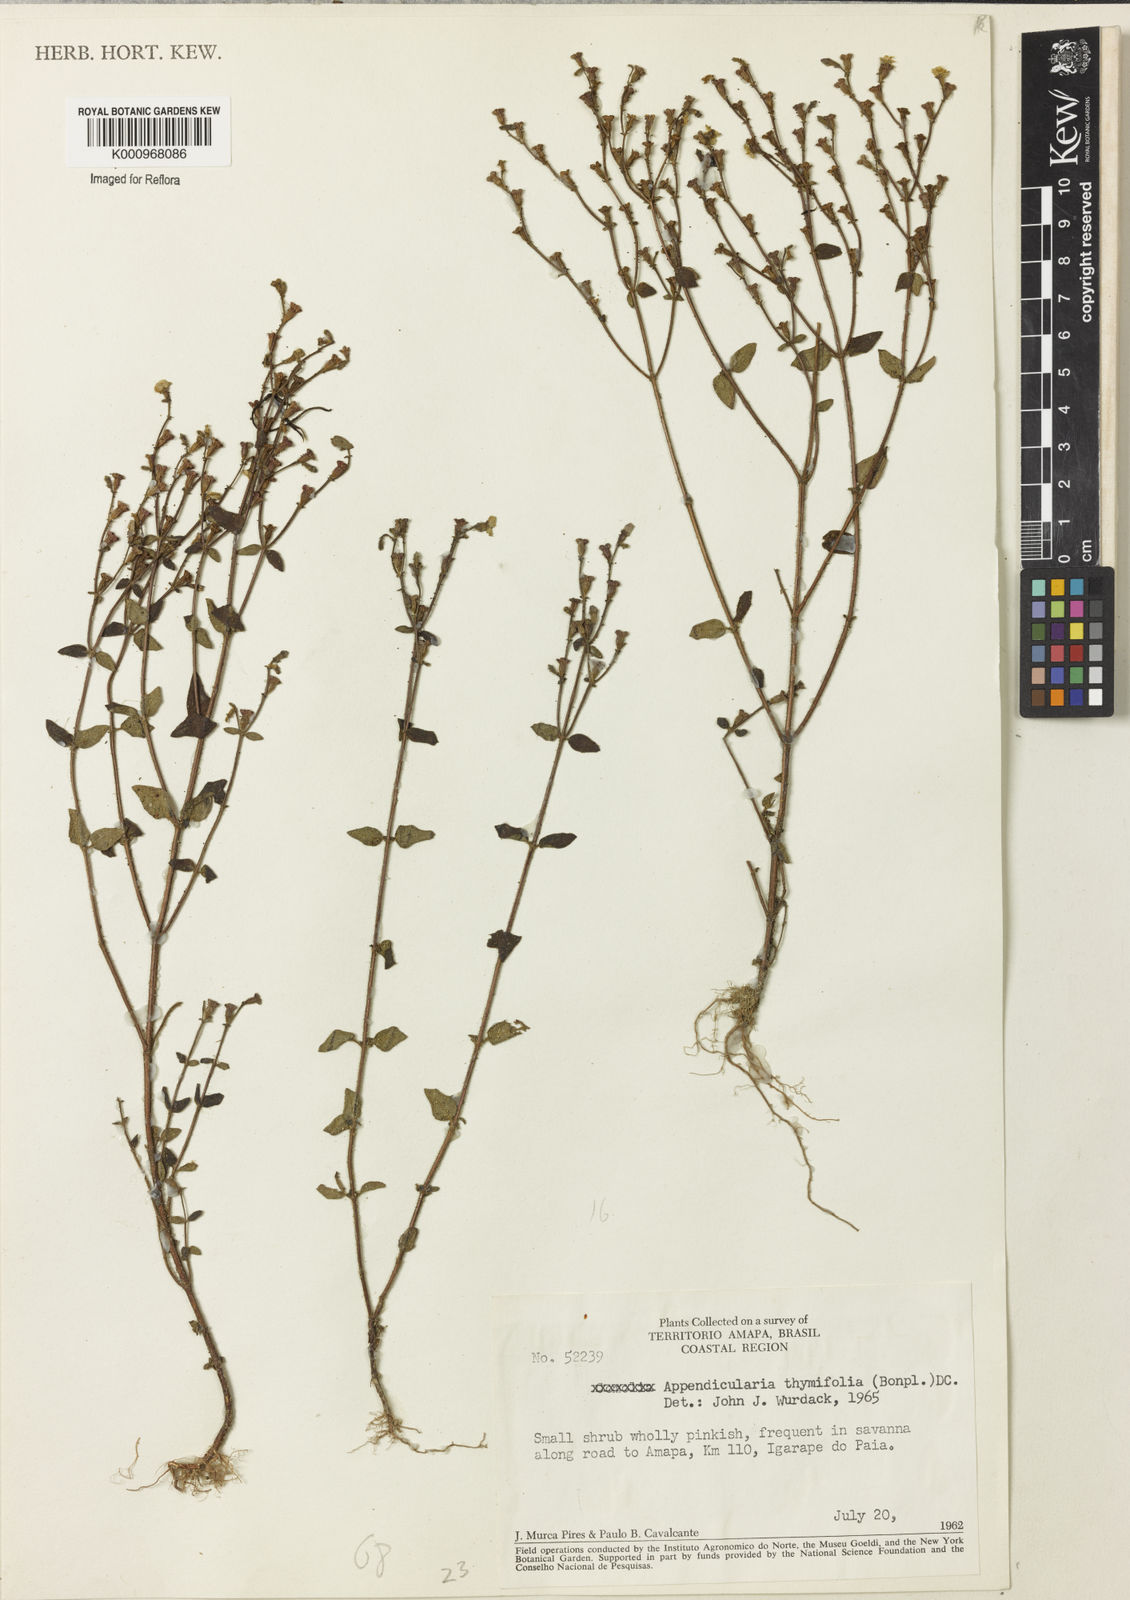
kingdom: Plantae
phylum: Tracheophyta
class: Magnoliopsida
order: Myrtales
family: Melastomataceae
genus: Appendicularia
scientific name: Appendicularia thymifolia
